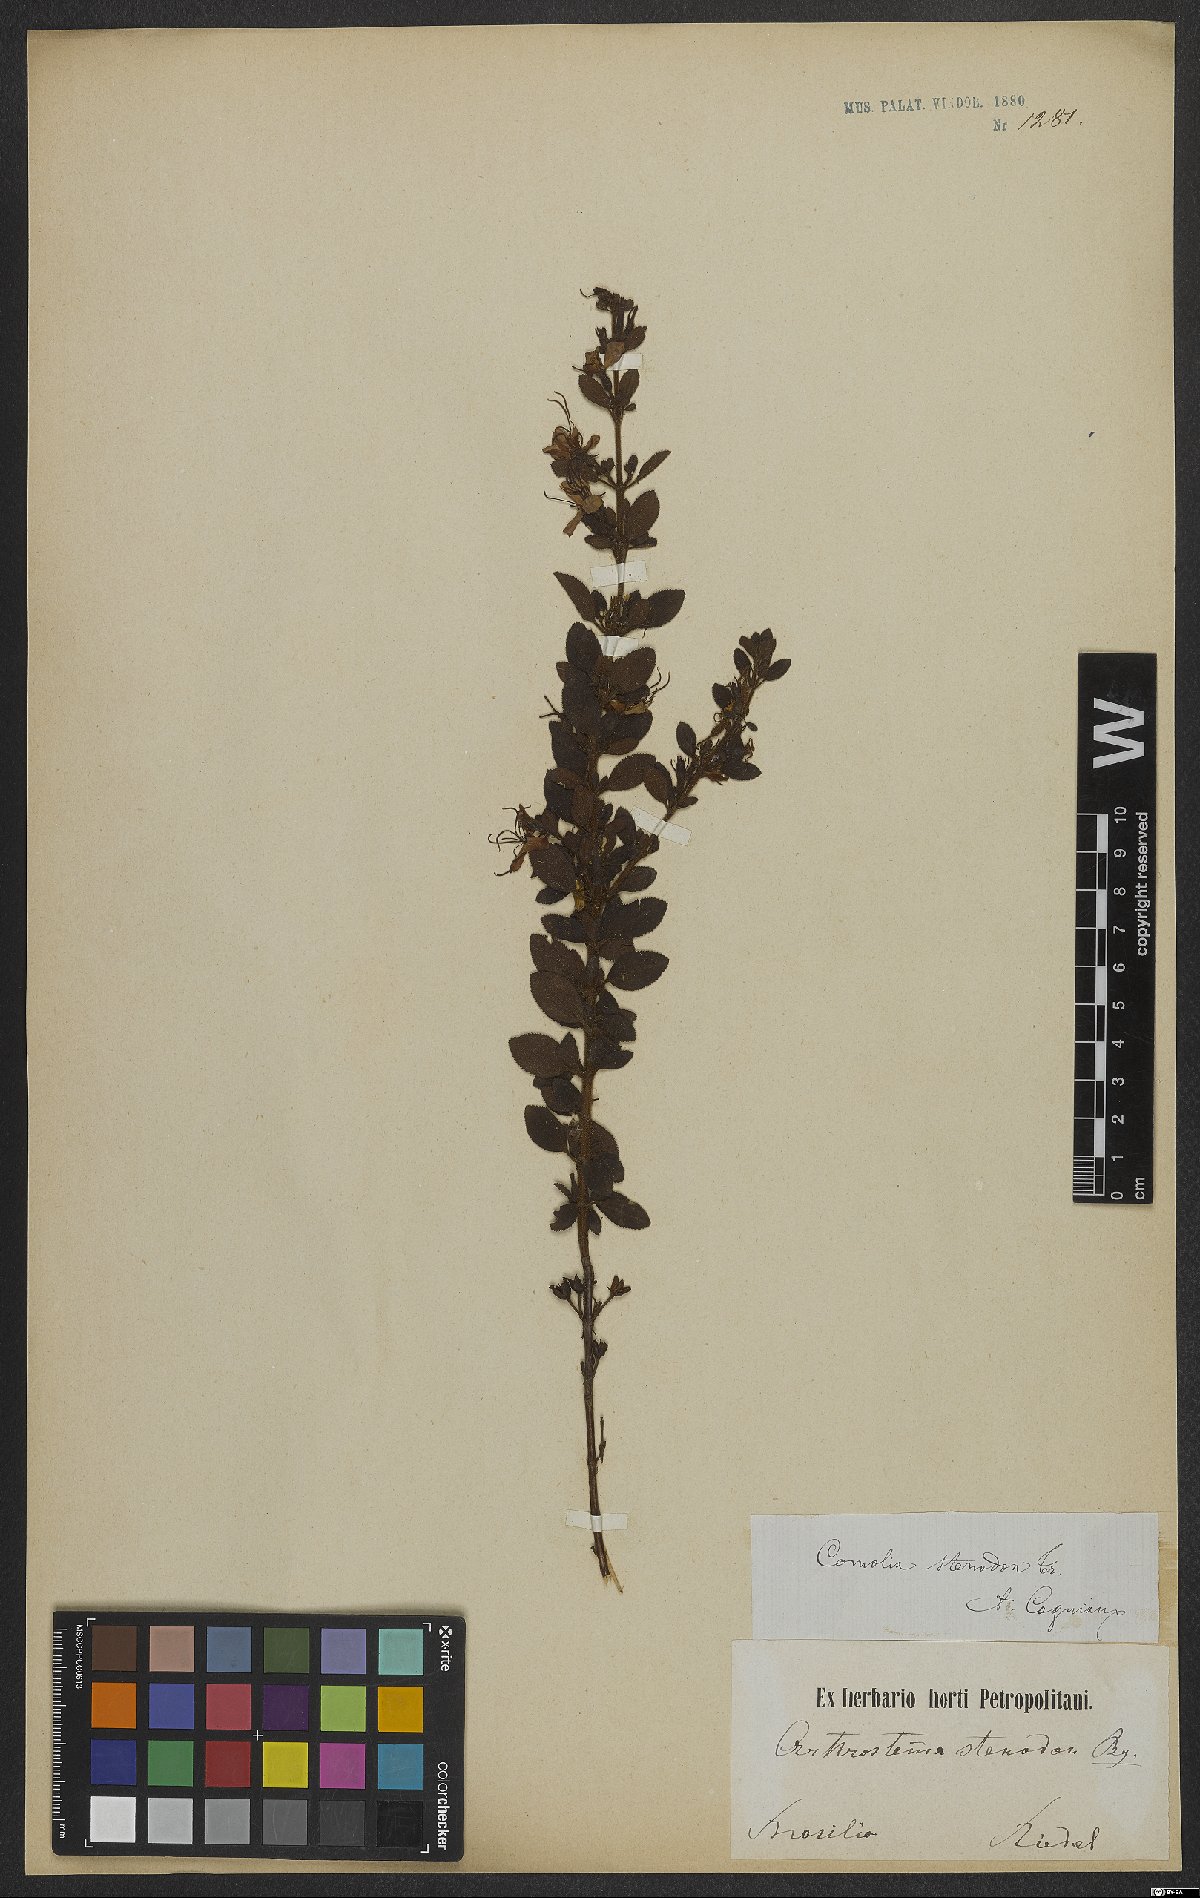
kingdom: Plantae
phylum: Tracheophyta
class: Magnoliopsida
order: Myrtales
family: Melastomataceae
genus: Fritzschia
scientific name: Fritzschia stenodon
